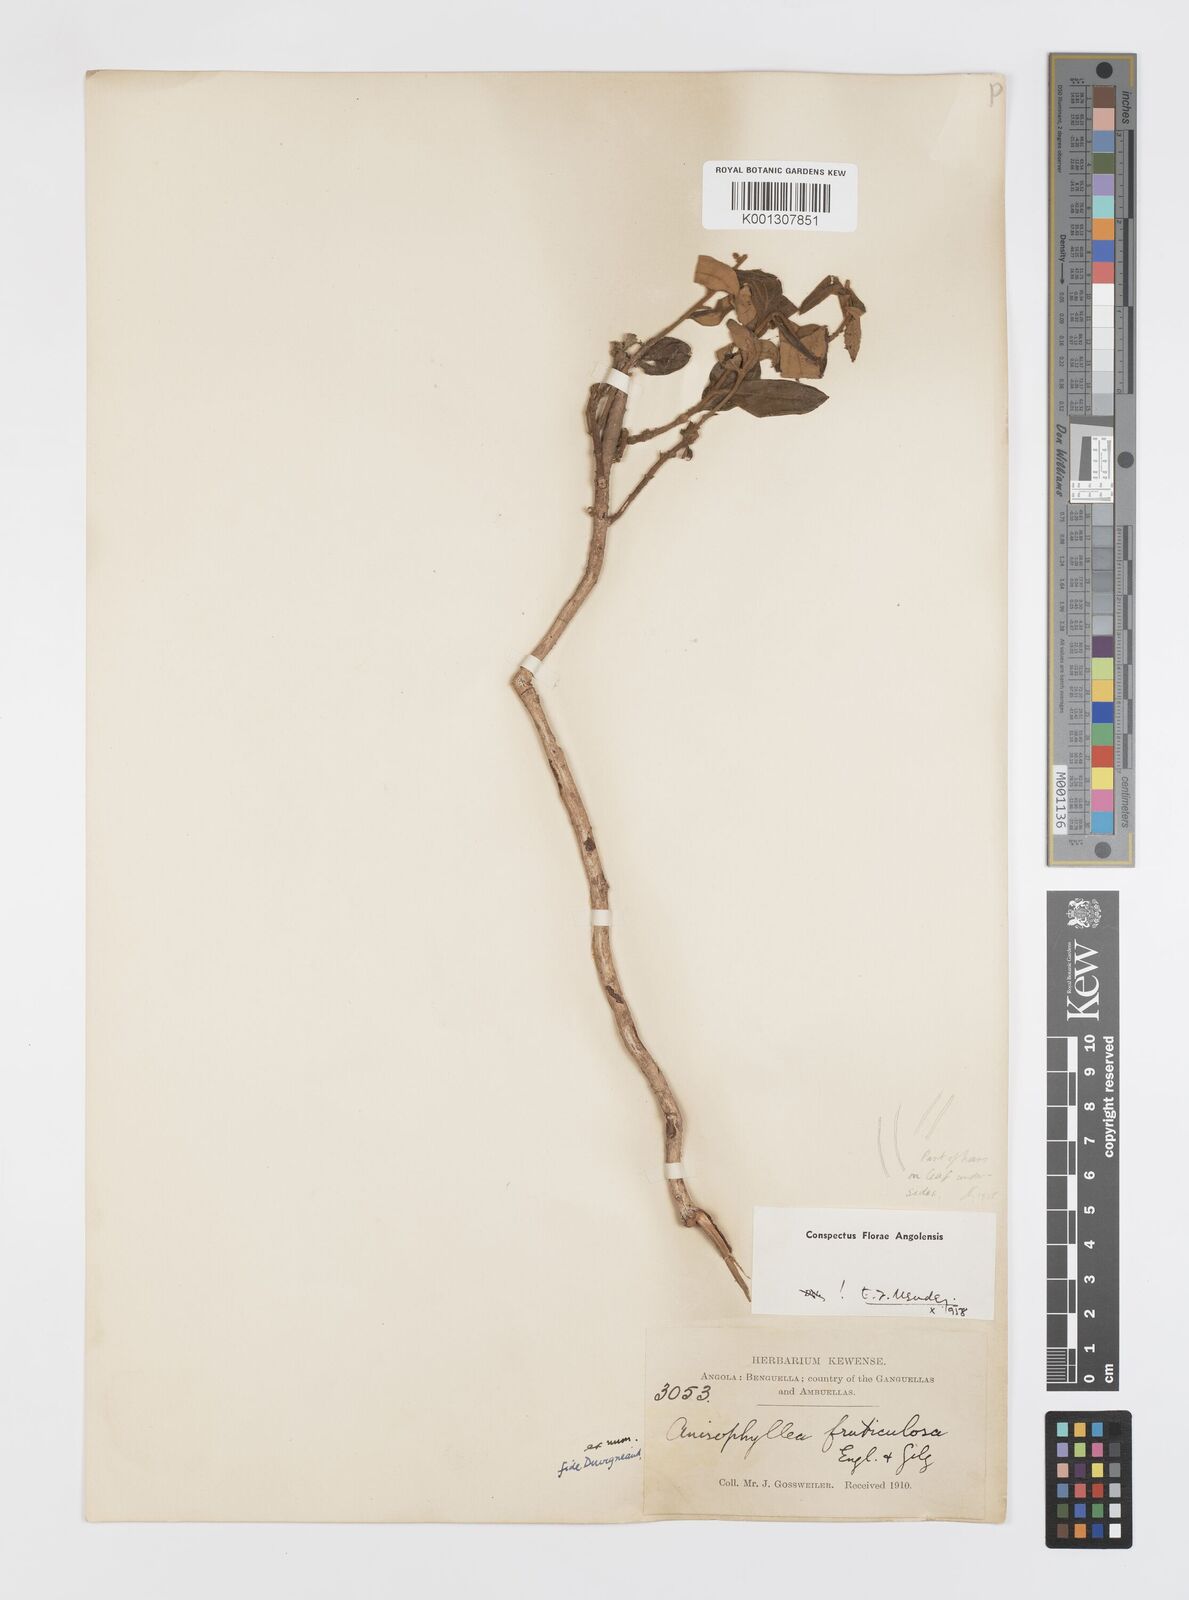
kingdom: Plantae
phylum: Tracheophyta
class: Magnoliopsida
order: Cucurbitales
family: Anisophylleaceae
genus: Anisophyllea
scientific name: Anisophyllea quangensis
